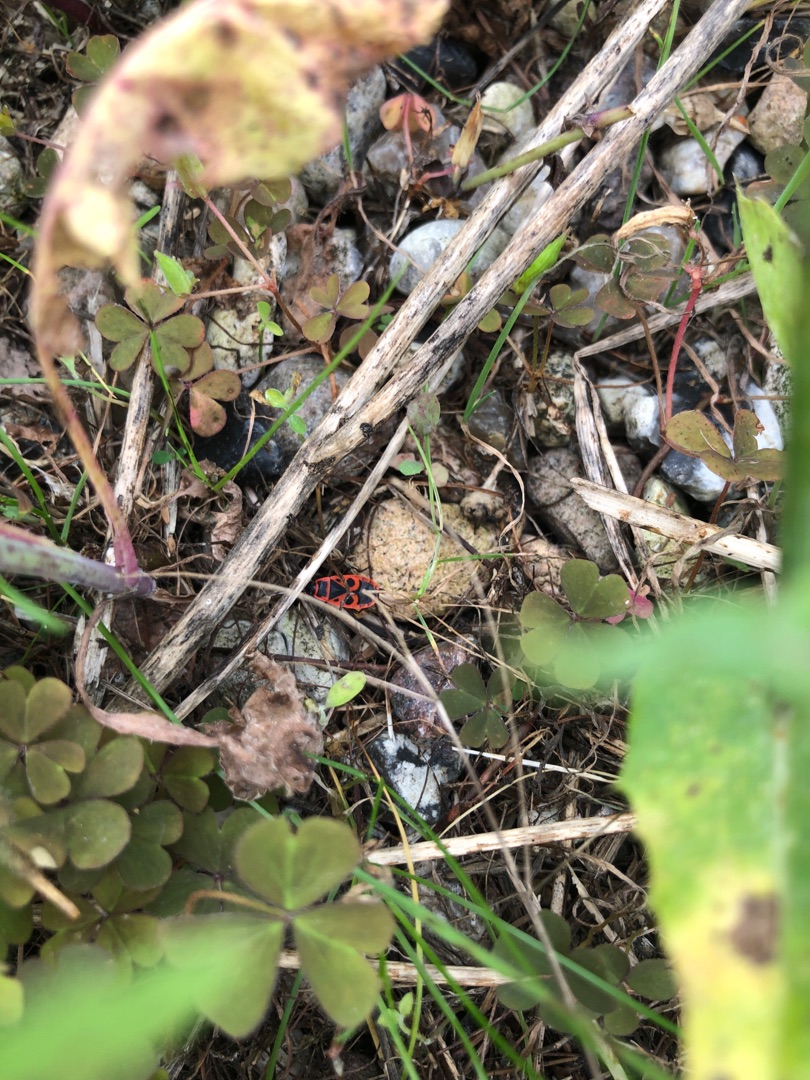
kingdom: Animalia
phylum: Arthropoda
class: Insecta
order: Hemiptera
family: Pyrrhocoridae
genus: Pyrrhocoris
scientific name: Pyrrhocoris apterus
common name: Ildtæge
